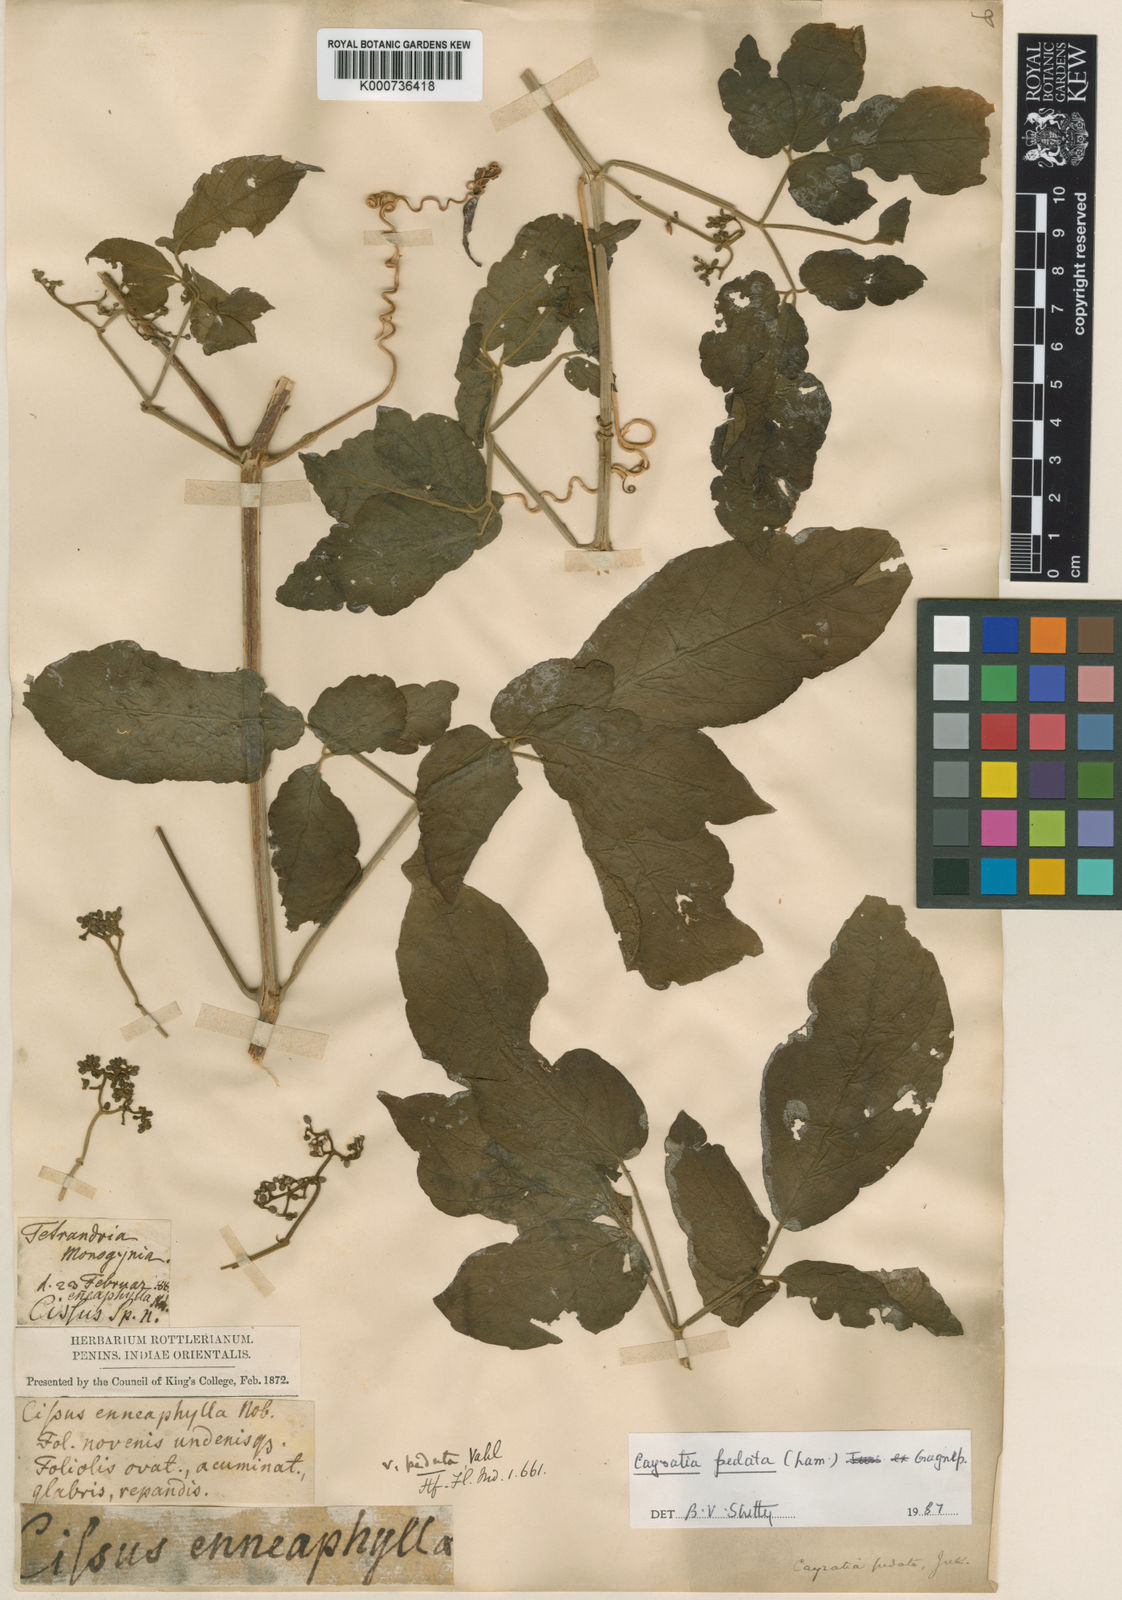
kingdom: Plantae
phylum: Tracheophyta
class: Magnoliopsida
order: Vitales
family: Vitaceae
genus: Cayratia
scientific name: Cayratia pedata
